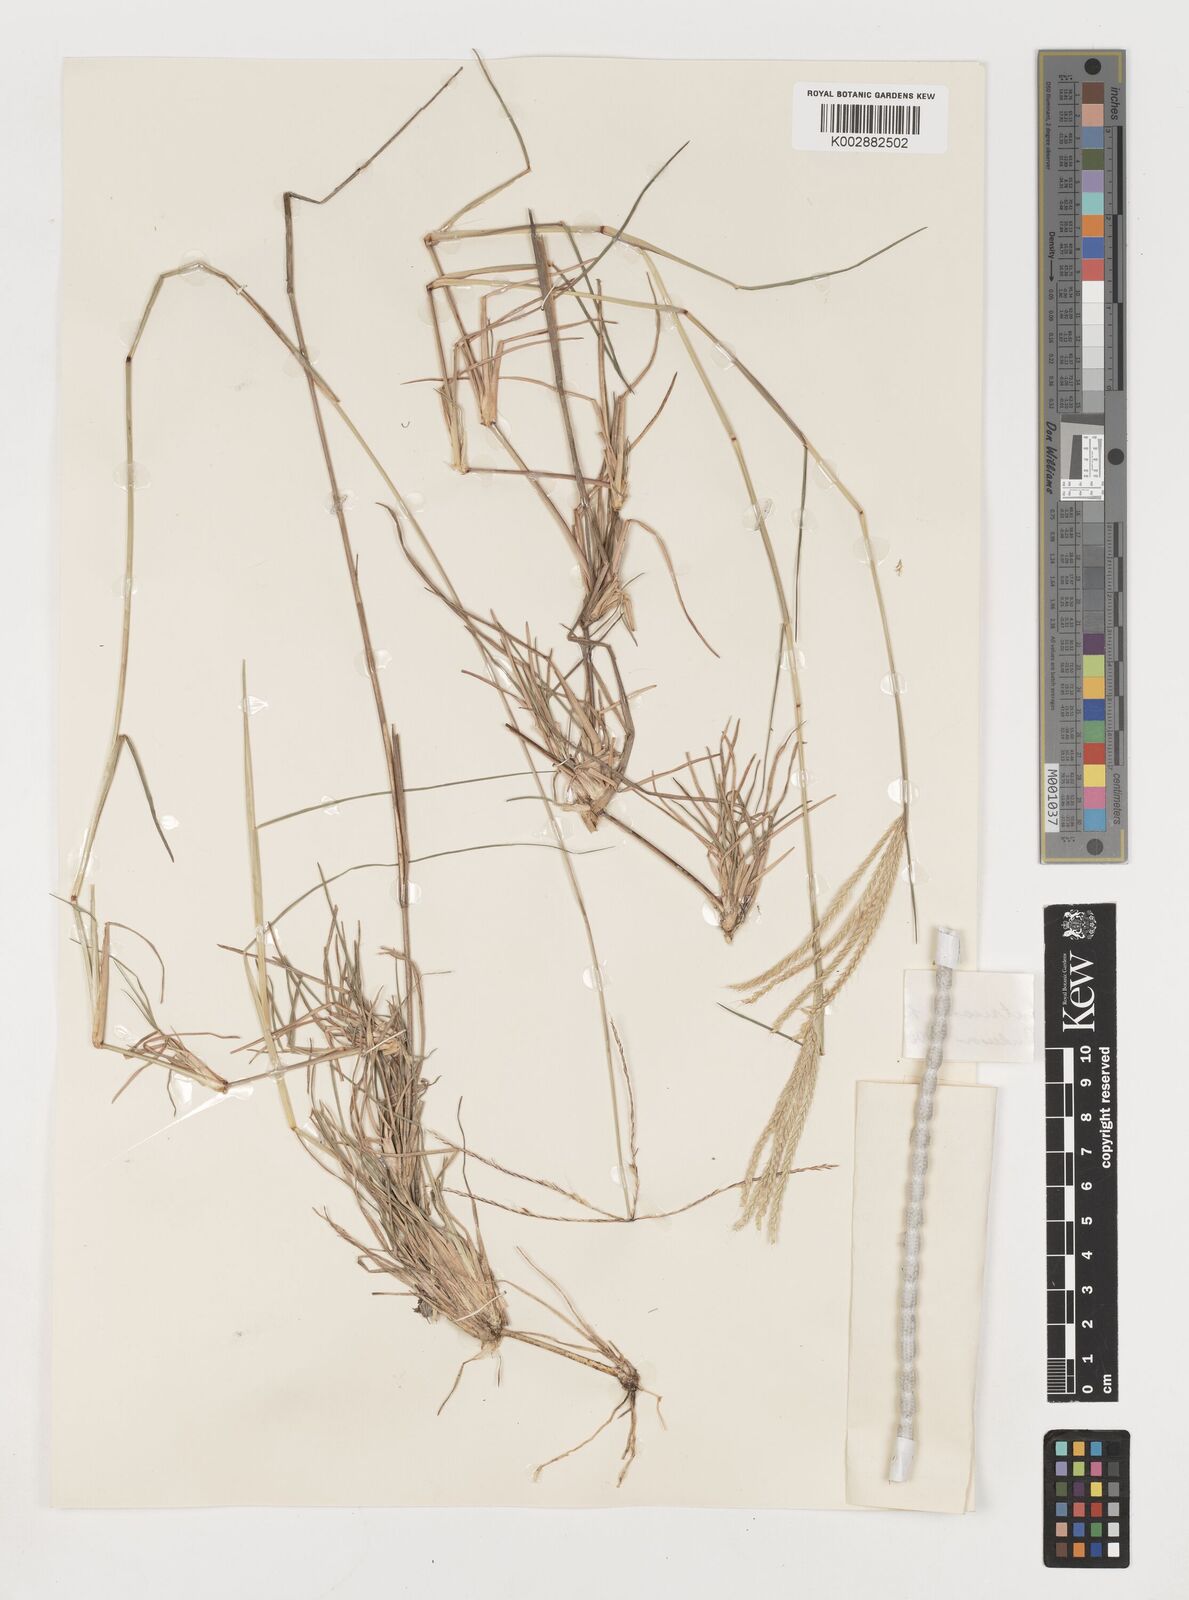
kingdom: Plantae
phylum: Tracheophyta
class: Liliopsida
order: Poales
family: Poaceae
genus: Chloris
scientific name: Chloris ventricosa
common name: Australian windmill grass
